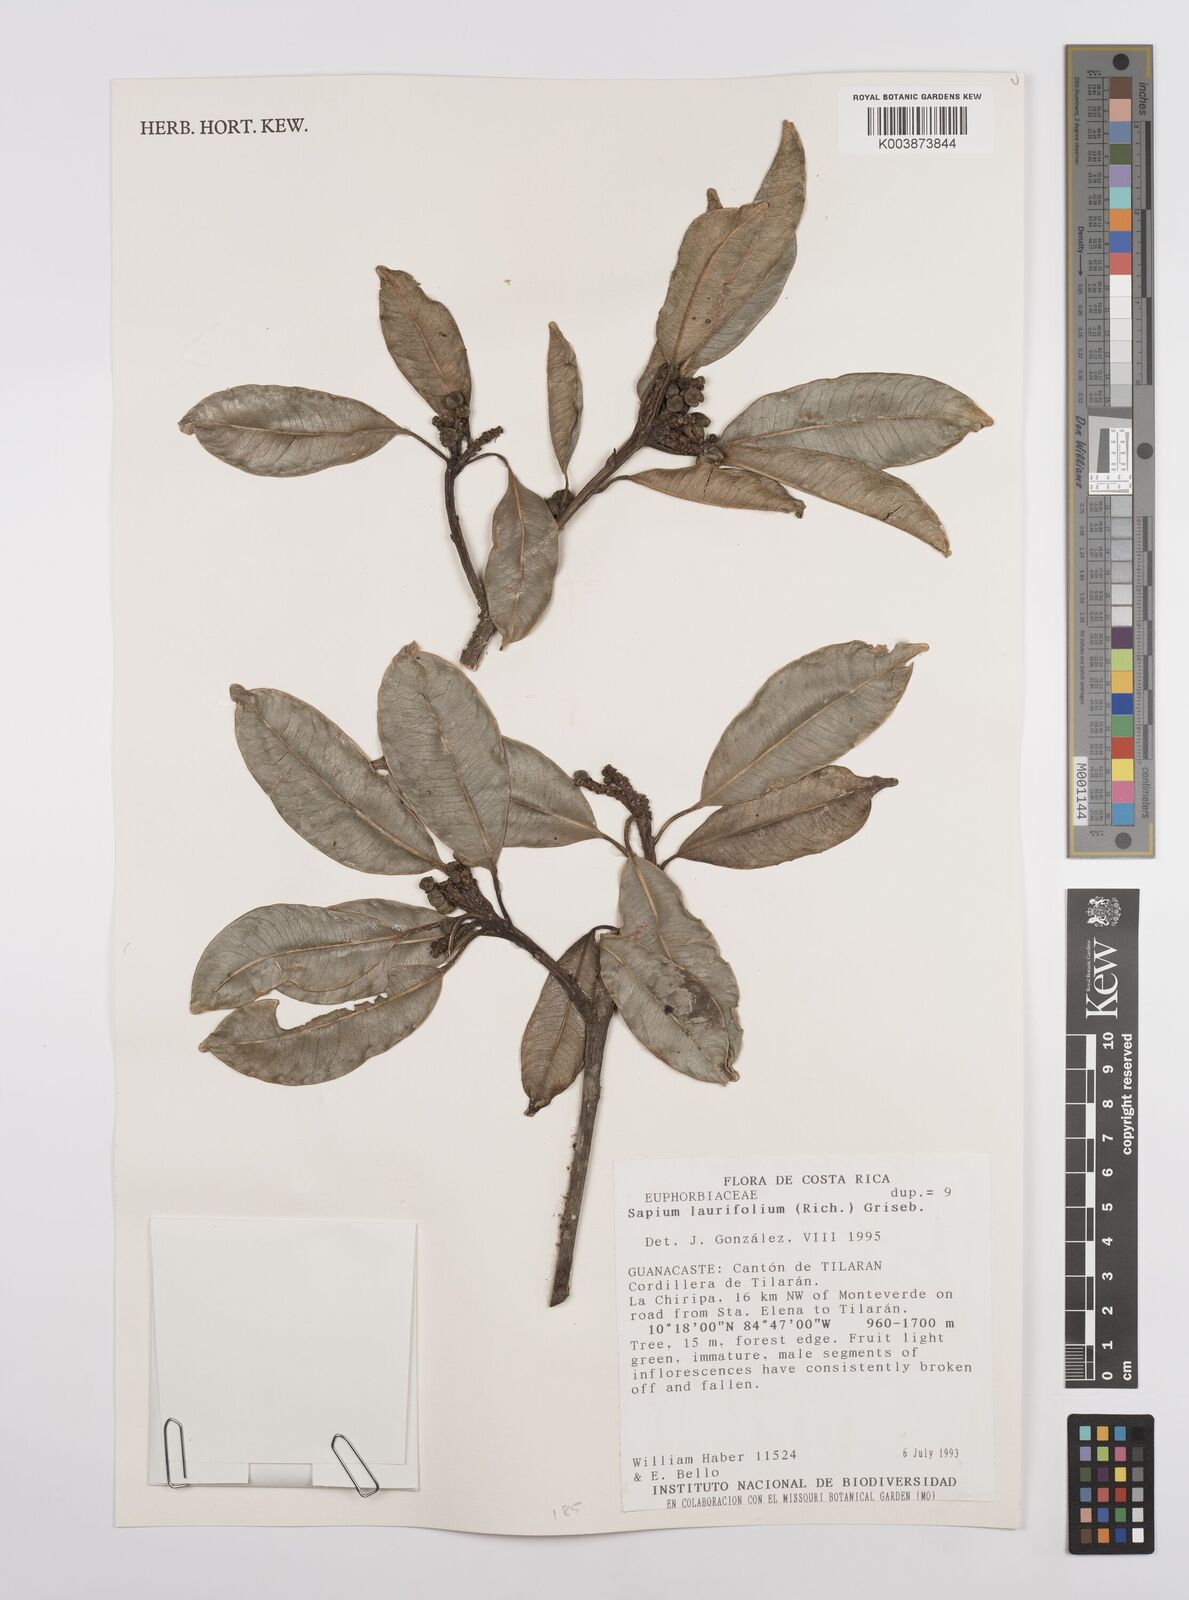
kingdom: Plantae
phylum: Tracheophyta
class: Magnoliopsida
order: Malpighiales
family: Euphorbiaceae
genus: Sapium
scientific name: Sapium laurifolium
